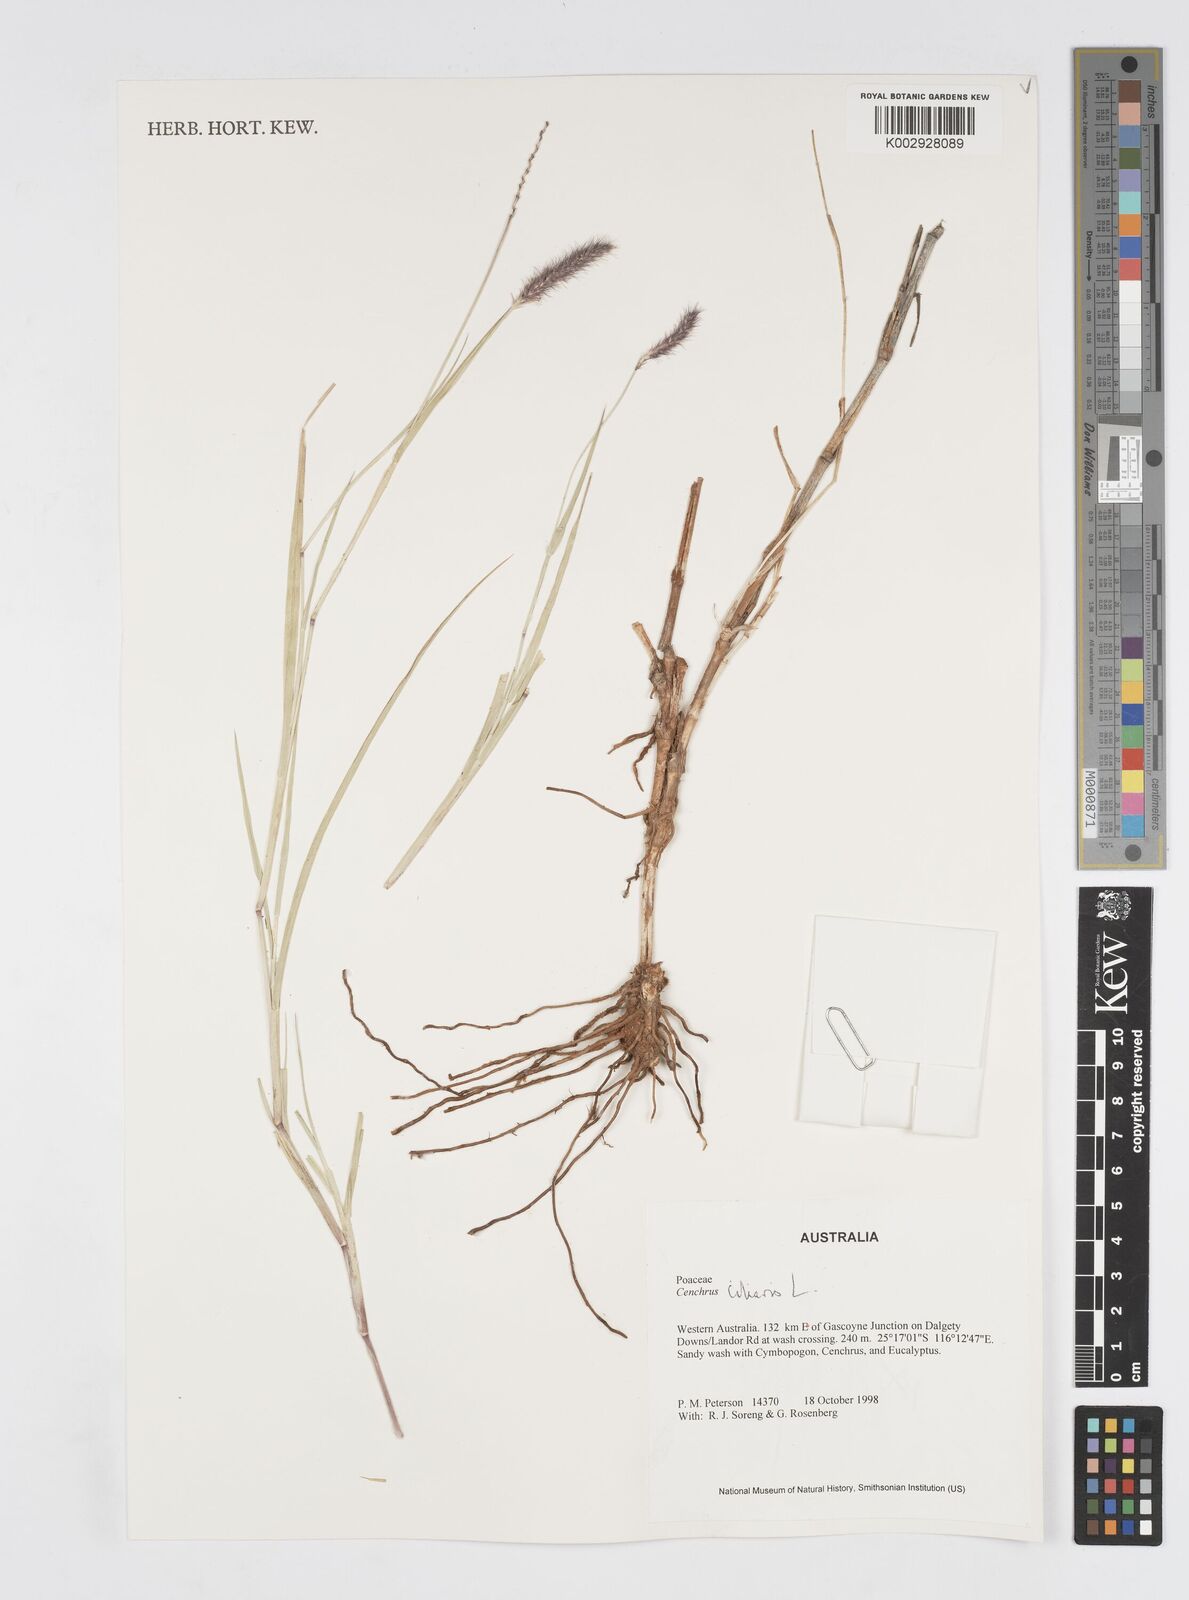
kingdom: Plantae
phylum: Tracheophyta
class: Liliopsida
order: Poales
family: Poaceae
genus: Cenchrus
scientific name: Cenchrus ciliaris
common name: Buffelgrass
